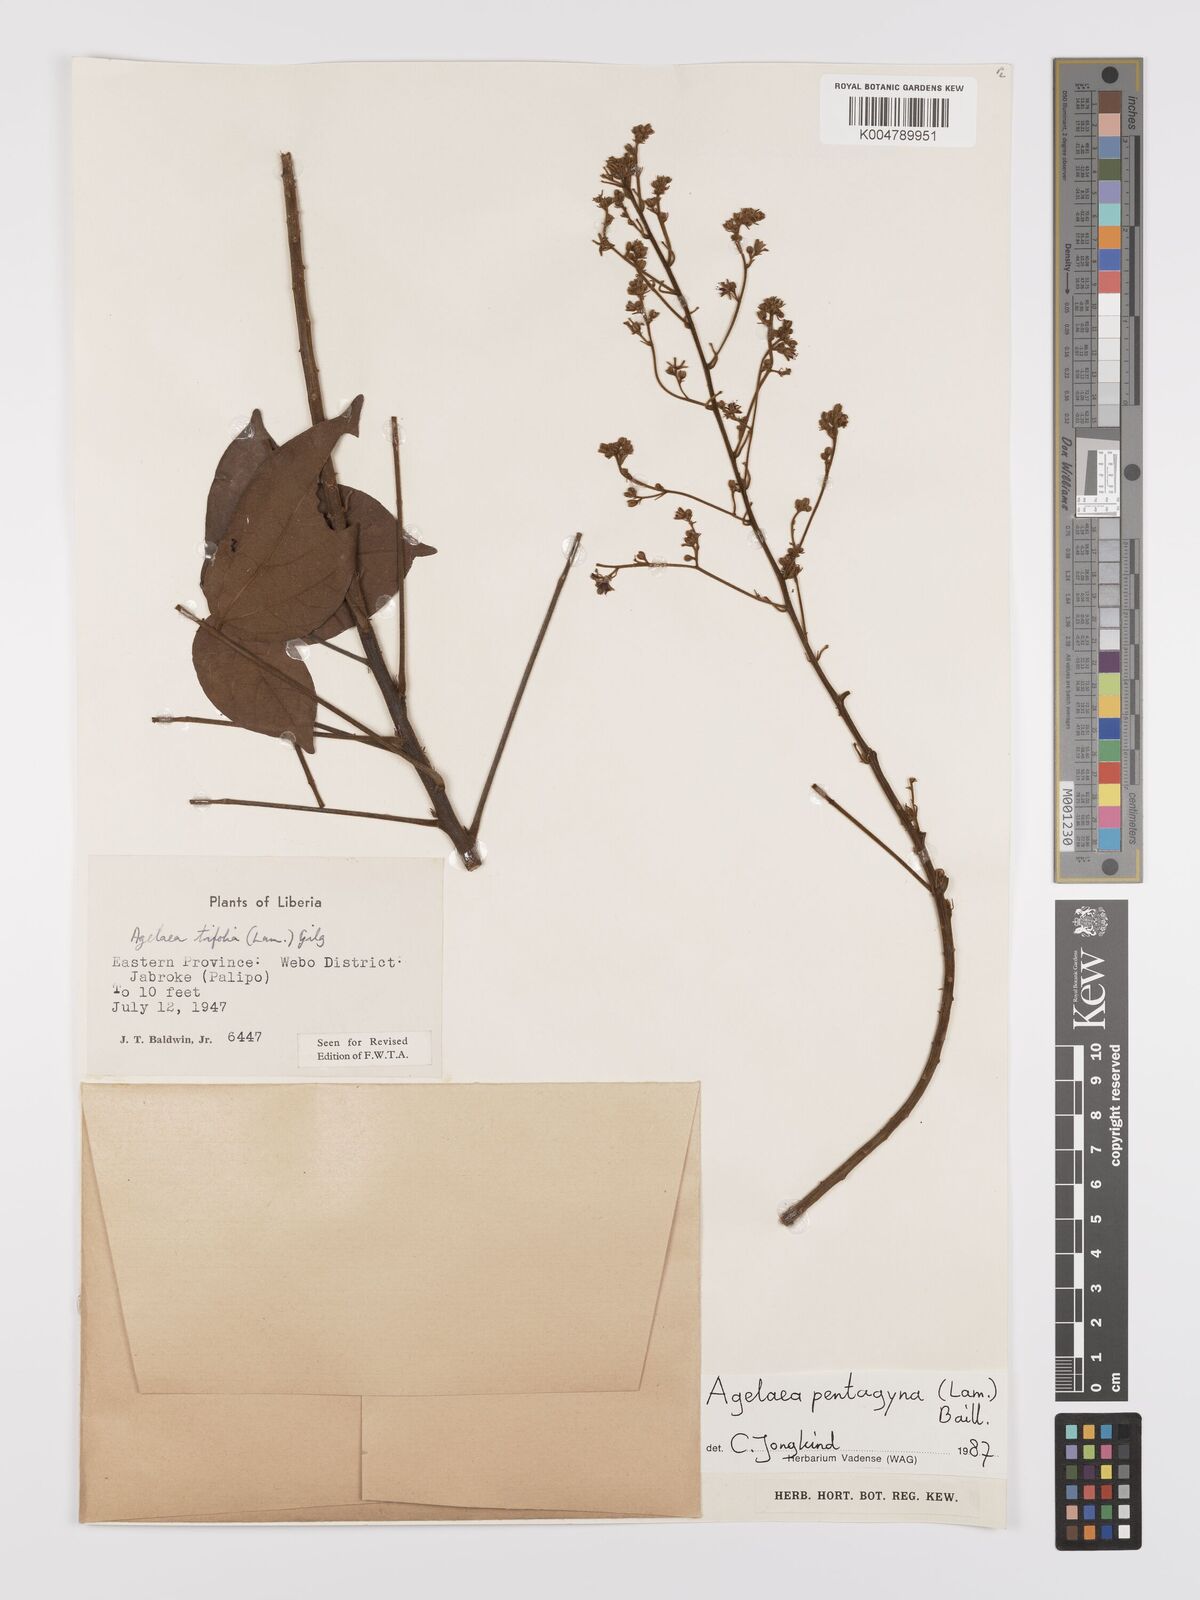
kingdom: Plantae
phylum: Tracheophyta
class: Magnoliopsida
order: Oxalidales
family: Connaraceae
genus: Agelaea
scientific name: Agelaea pentagyna
